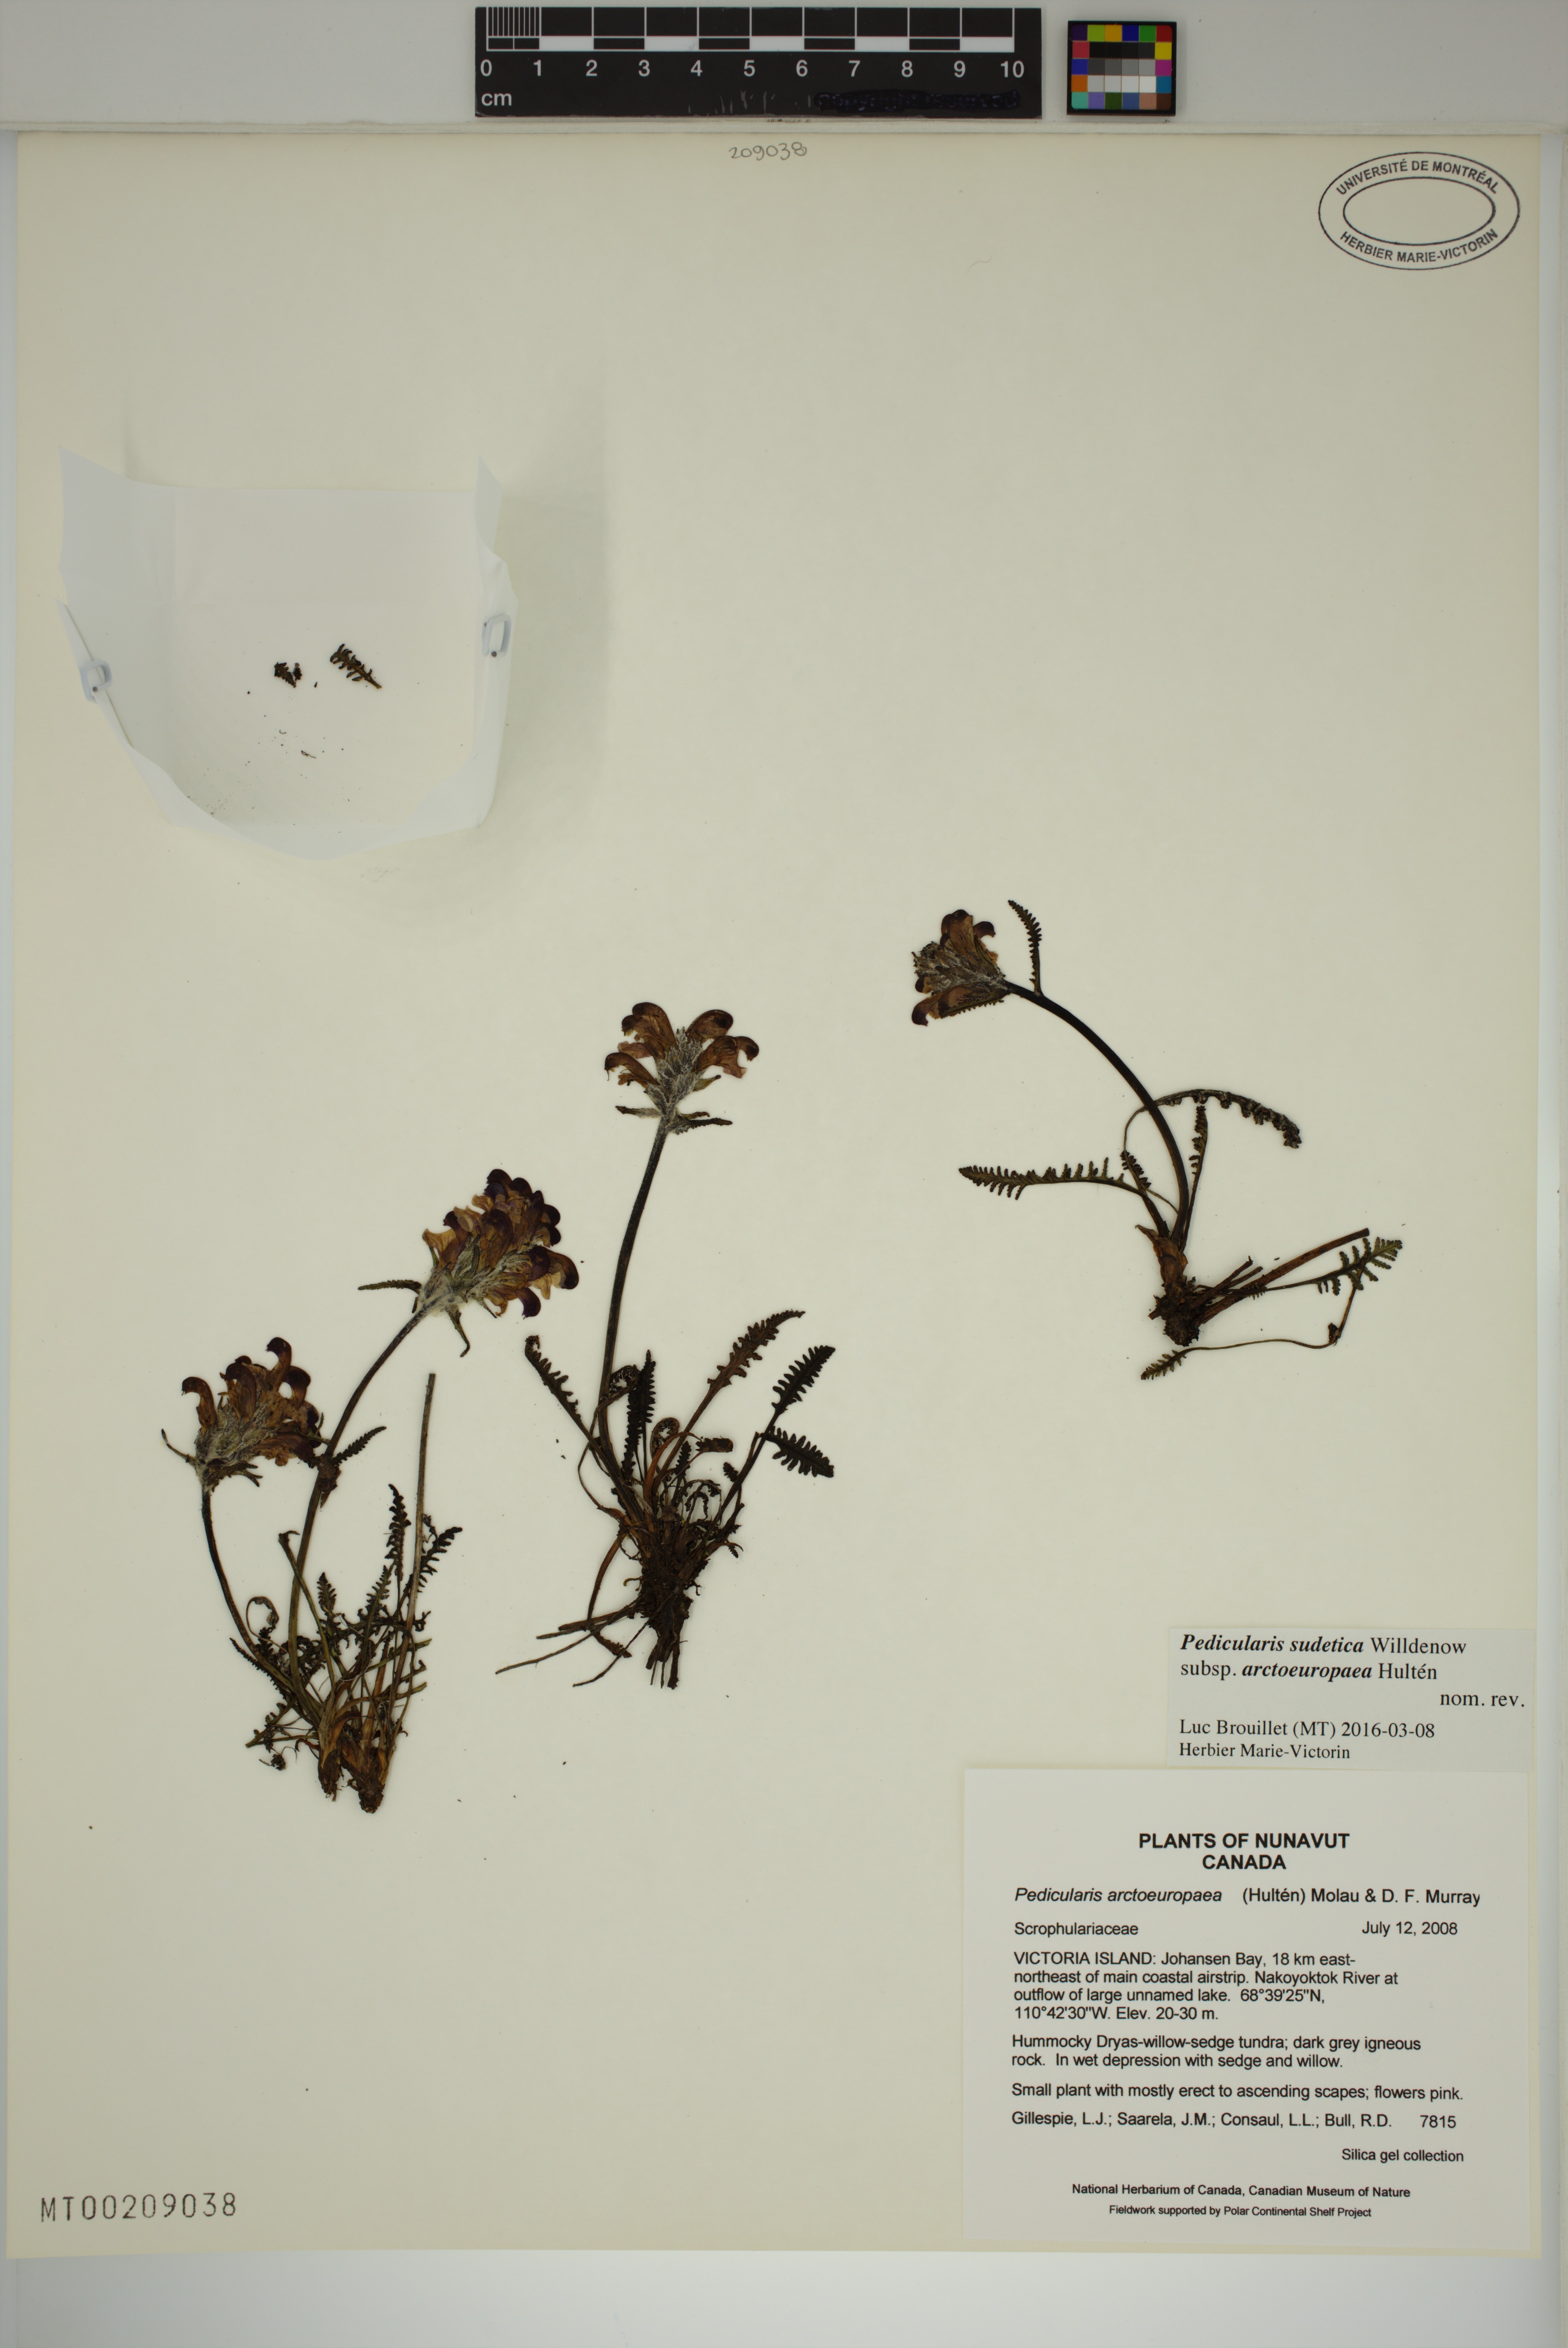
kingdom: Plantae
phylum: Tracheophyta
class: Magnoliopsida
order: Lamiales
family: Orobanchaceae
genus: Pedicularis
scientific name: Pedicularis arctoeuropaea
